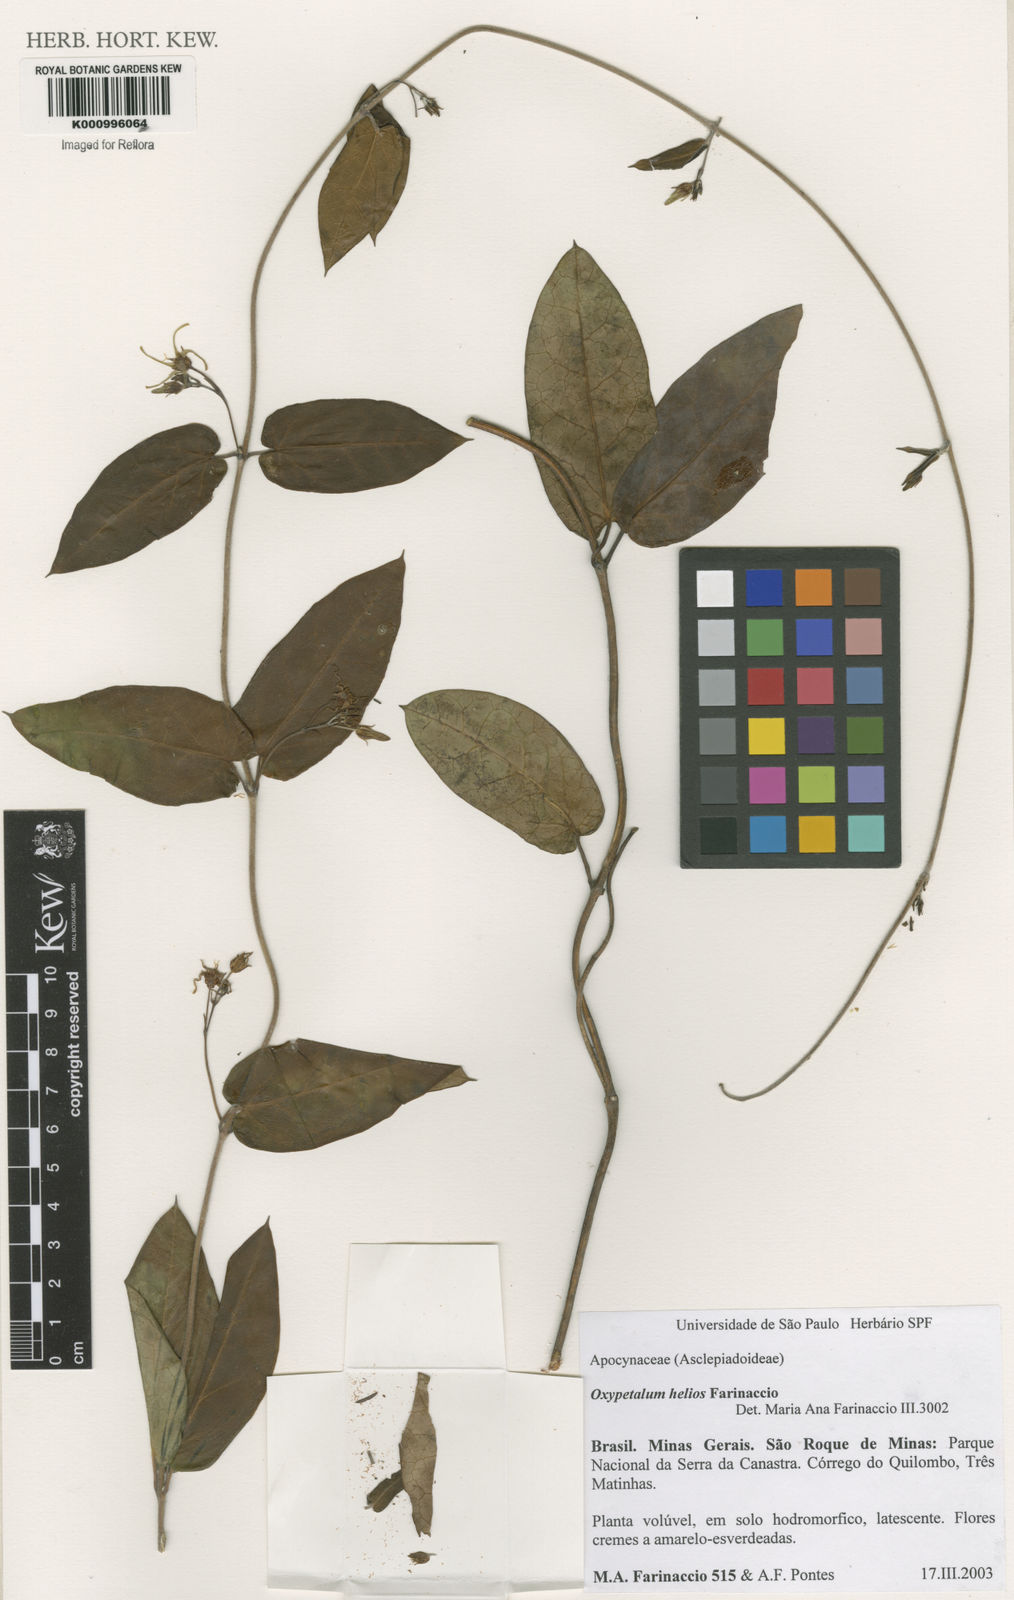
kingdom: Plantae
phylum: Tracheophyta
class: Magnoliopsida
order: Gentianales
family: Apocynaceae
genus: Oxypetalum
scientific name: Oxypetalum helios
